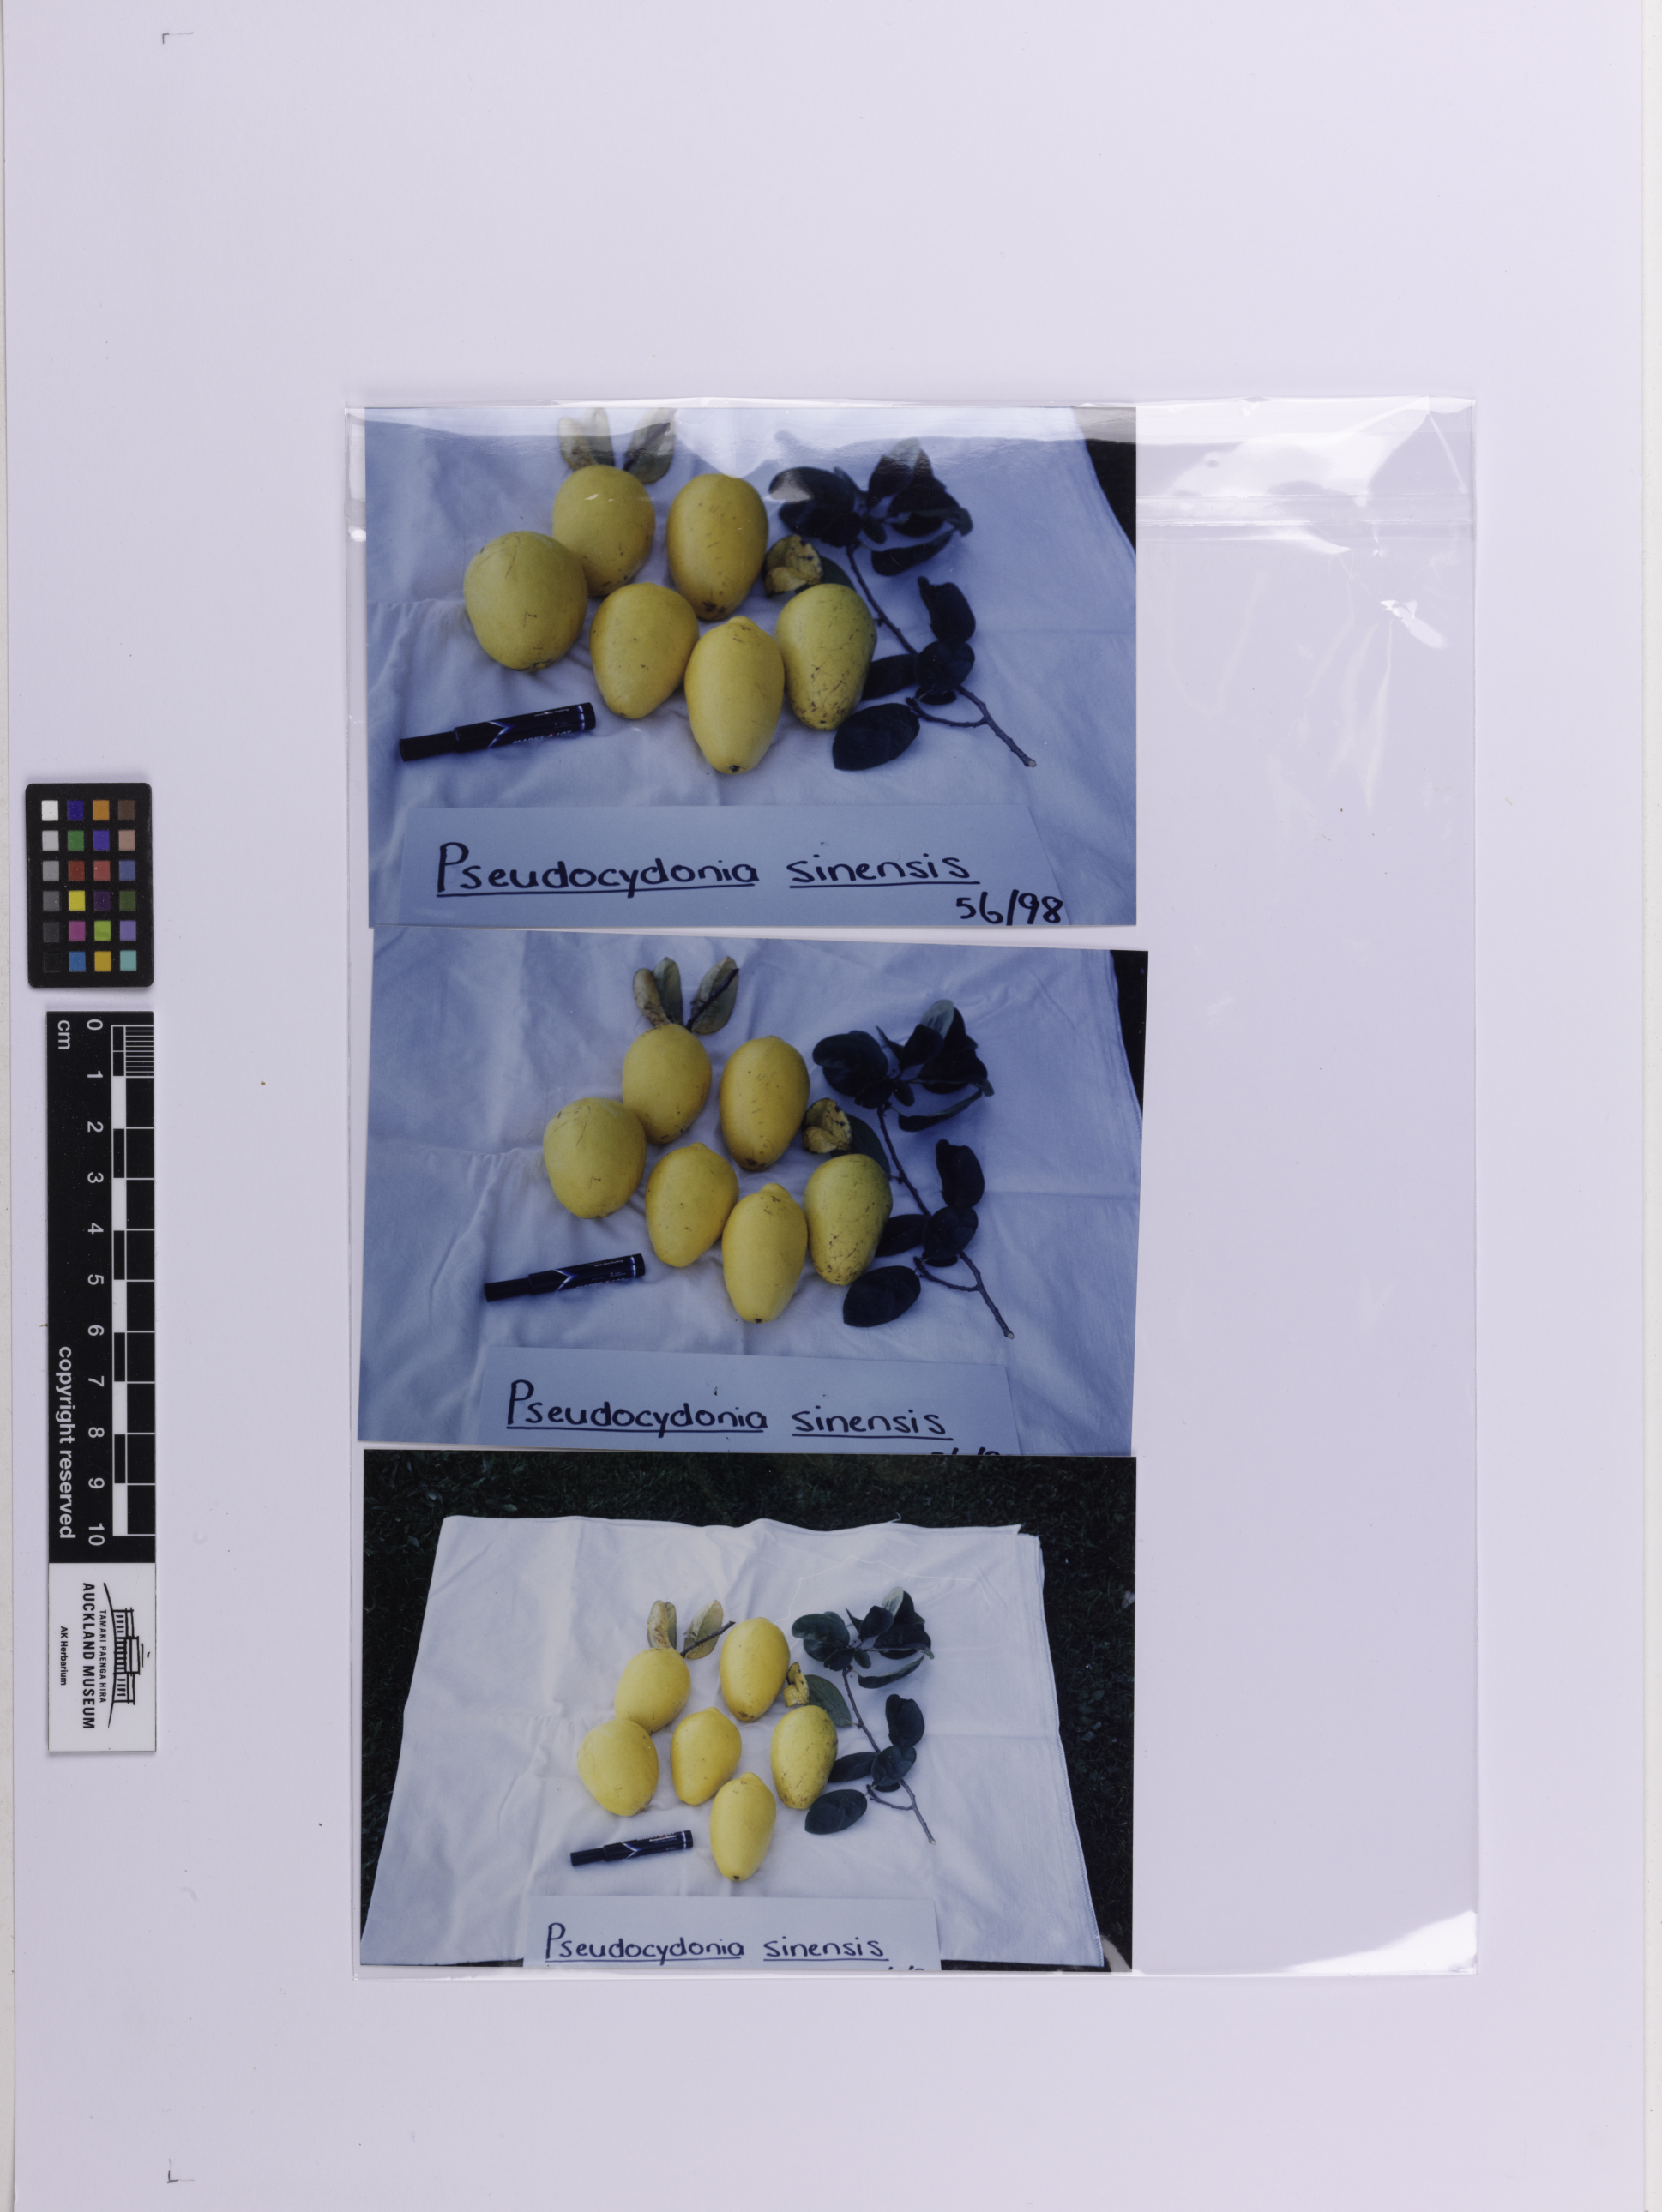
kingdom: Plantae
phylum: Tracheophyta
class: Magnoliopsida
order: Rosales
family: Rosaceae
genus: Pseudocydonia
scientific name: Pseudocydonia sinensis
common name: Chinese-quince
